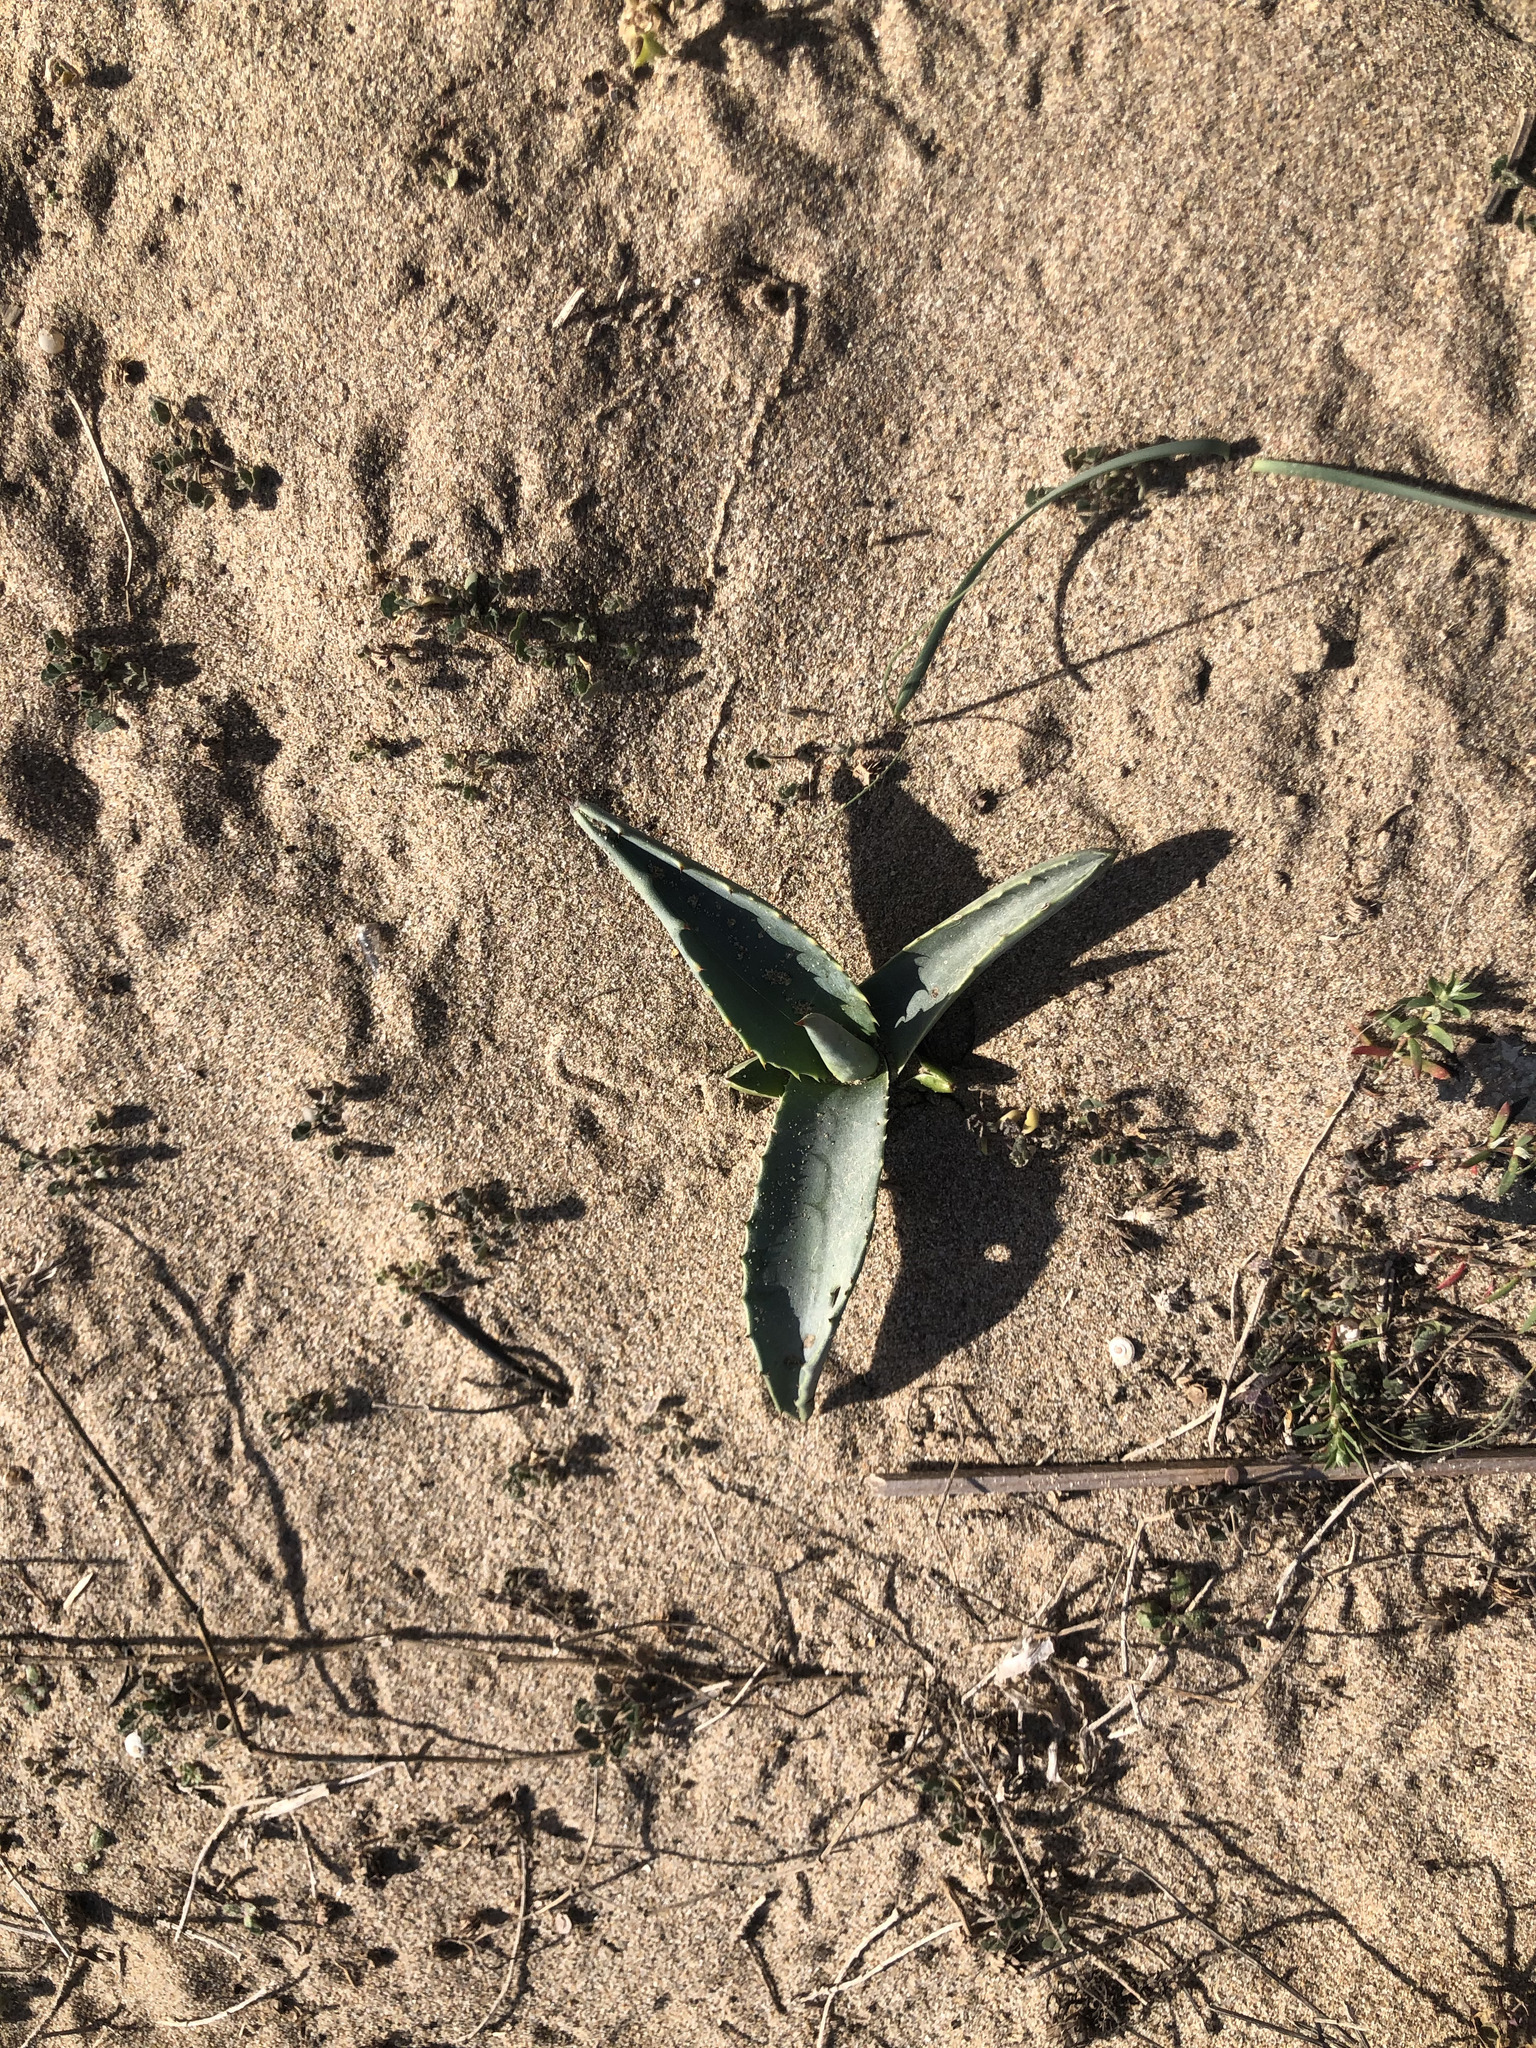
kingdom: Plantae
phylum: Tracheophyta
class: Liliopsida
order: Asparagales
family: Asparagaceae
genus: Agave
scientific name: Agave americana
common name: Centuryplant
